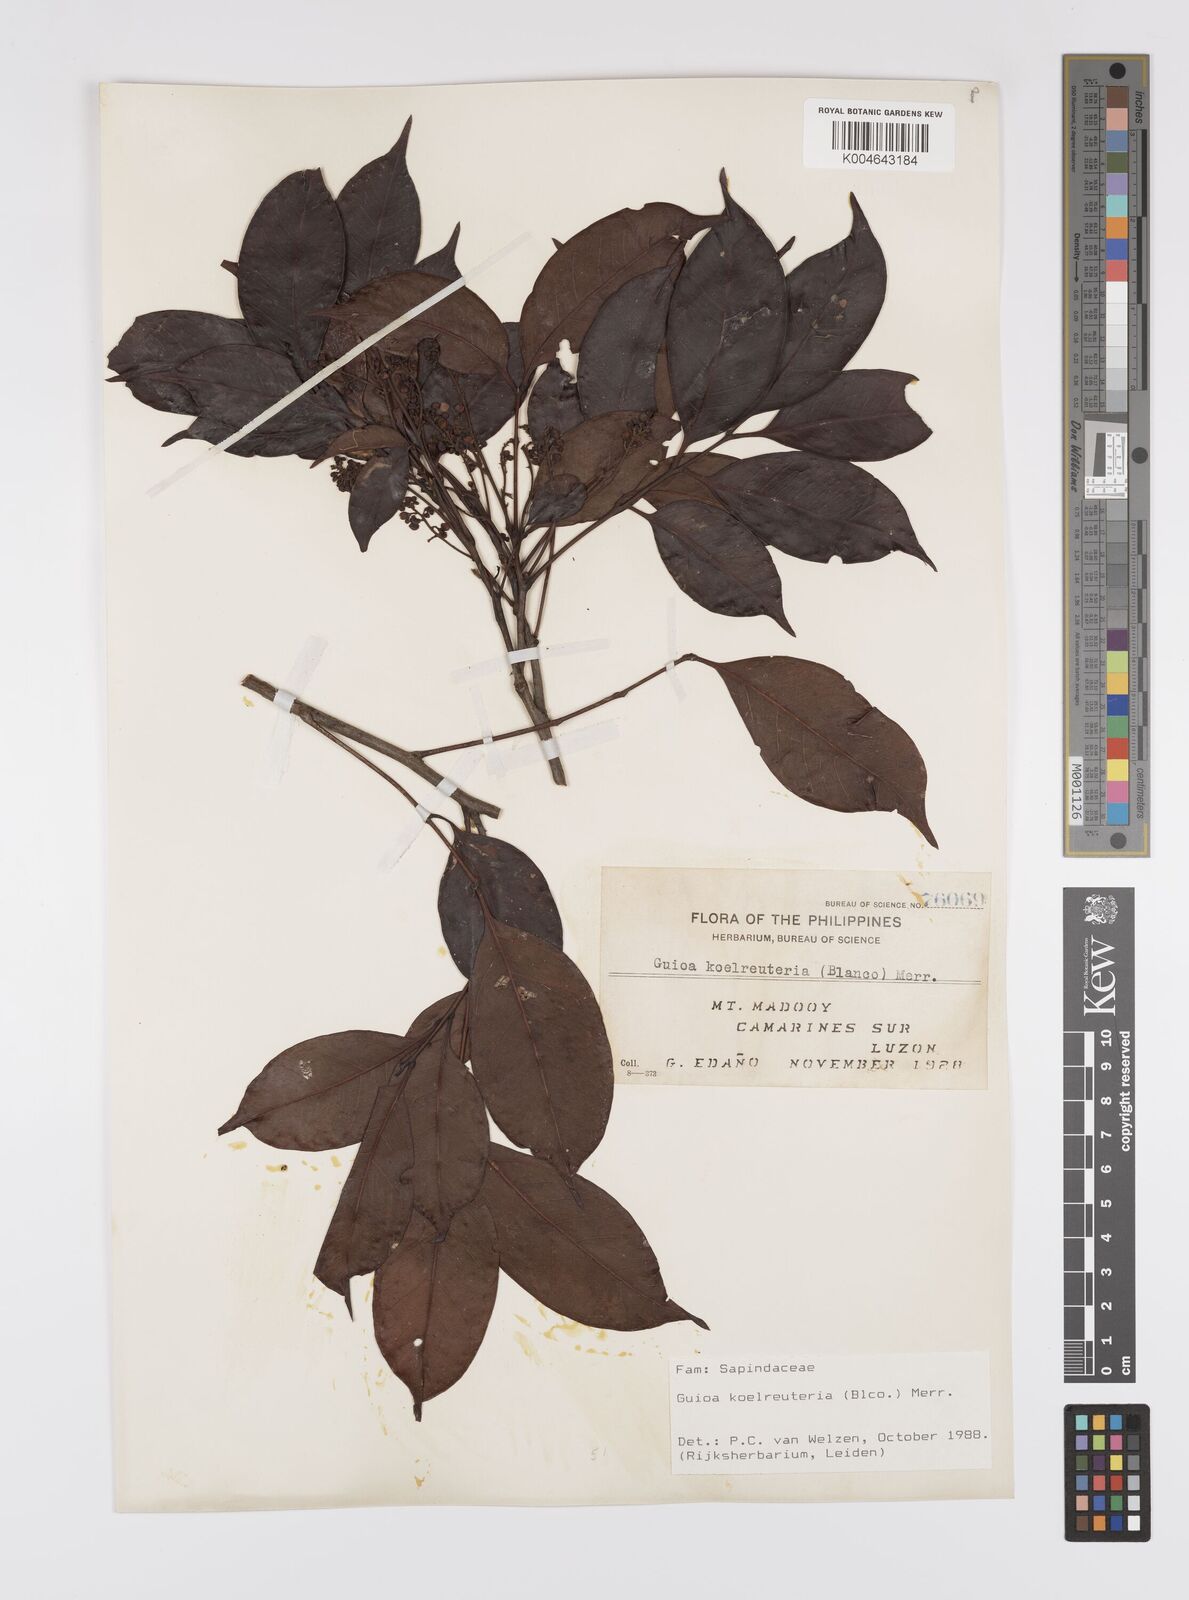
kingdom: Plantae
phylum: Tracheophyta
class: Magnoliopsida
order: Sapindales
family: Sapindaceae
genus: Guioa
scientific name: Guioa koelreuteria
